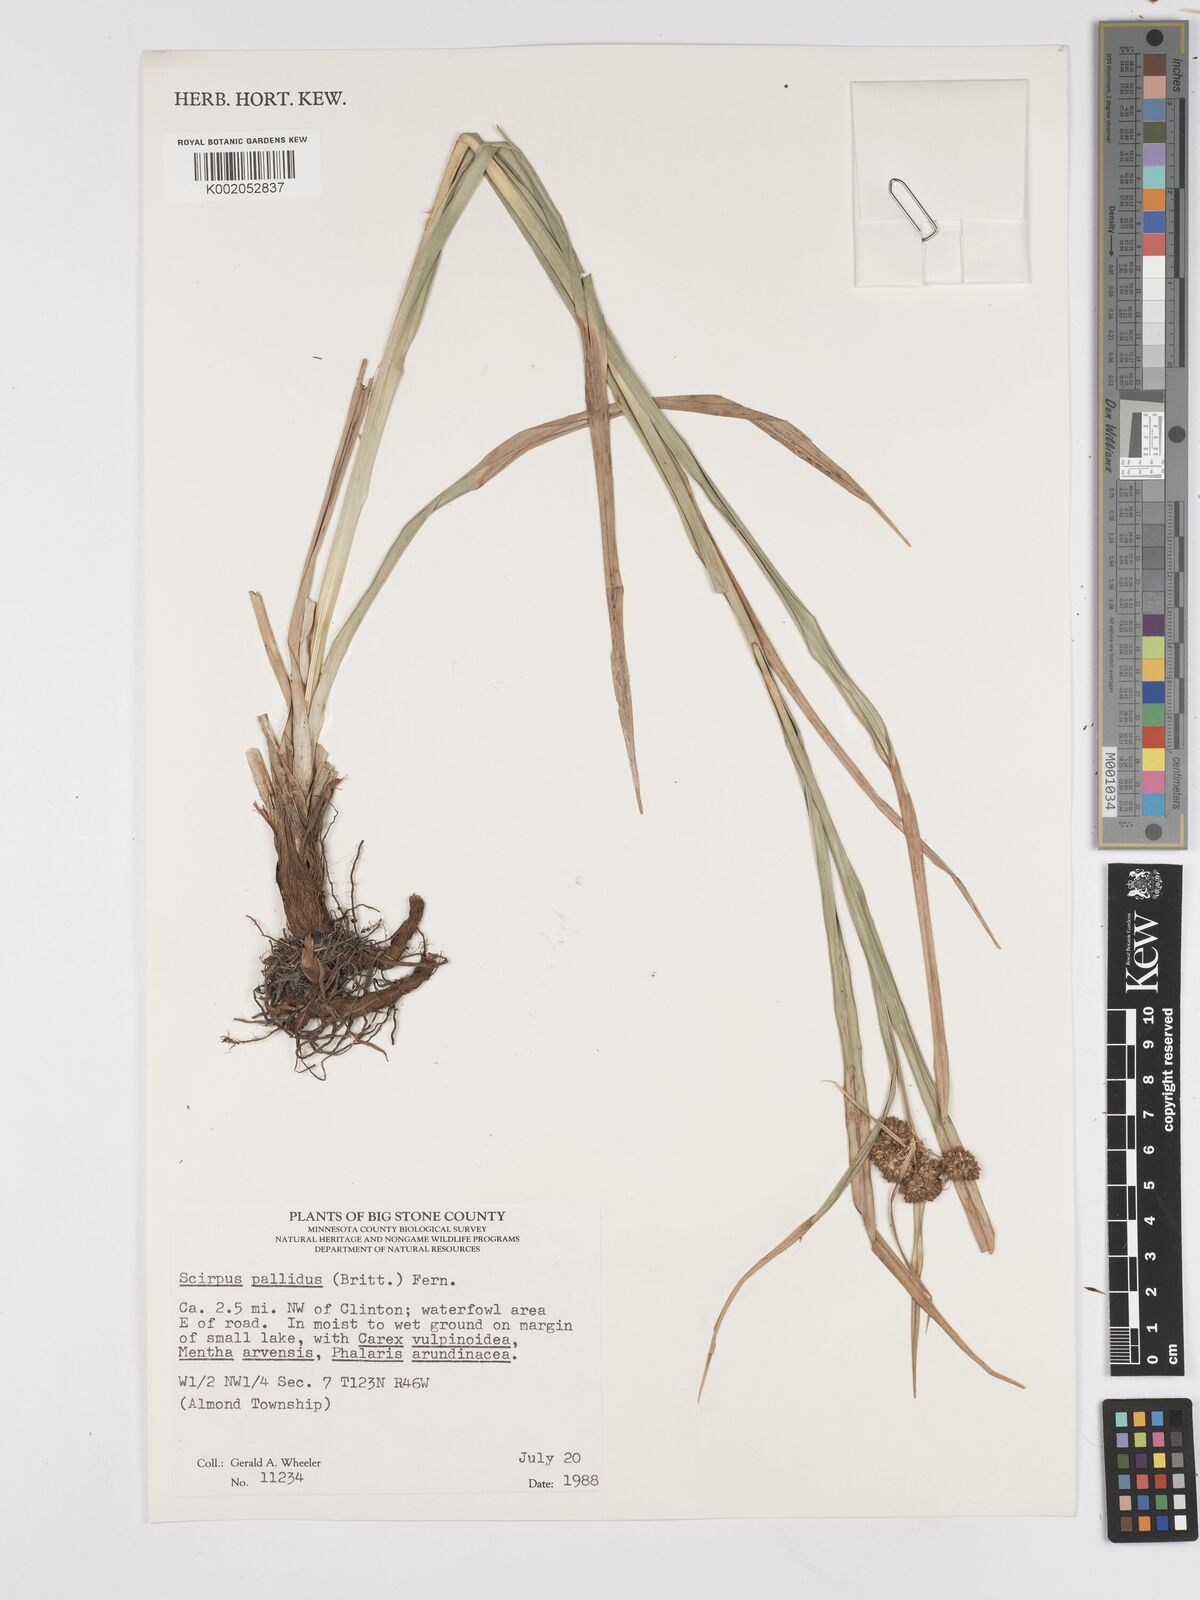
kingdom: Plantae
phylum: Tracheophyta
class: Liliopsida
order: Poales
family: Cyperaceae
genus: Scirpus
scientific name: Scirpus pallidus
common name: Cloaked bulrush
